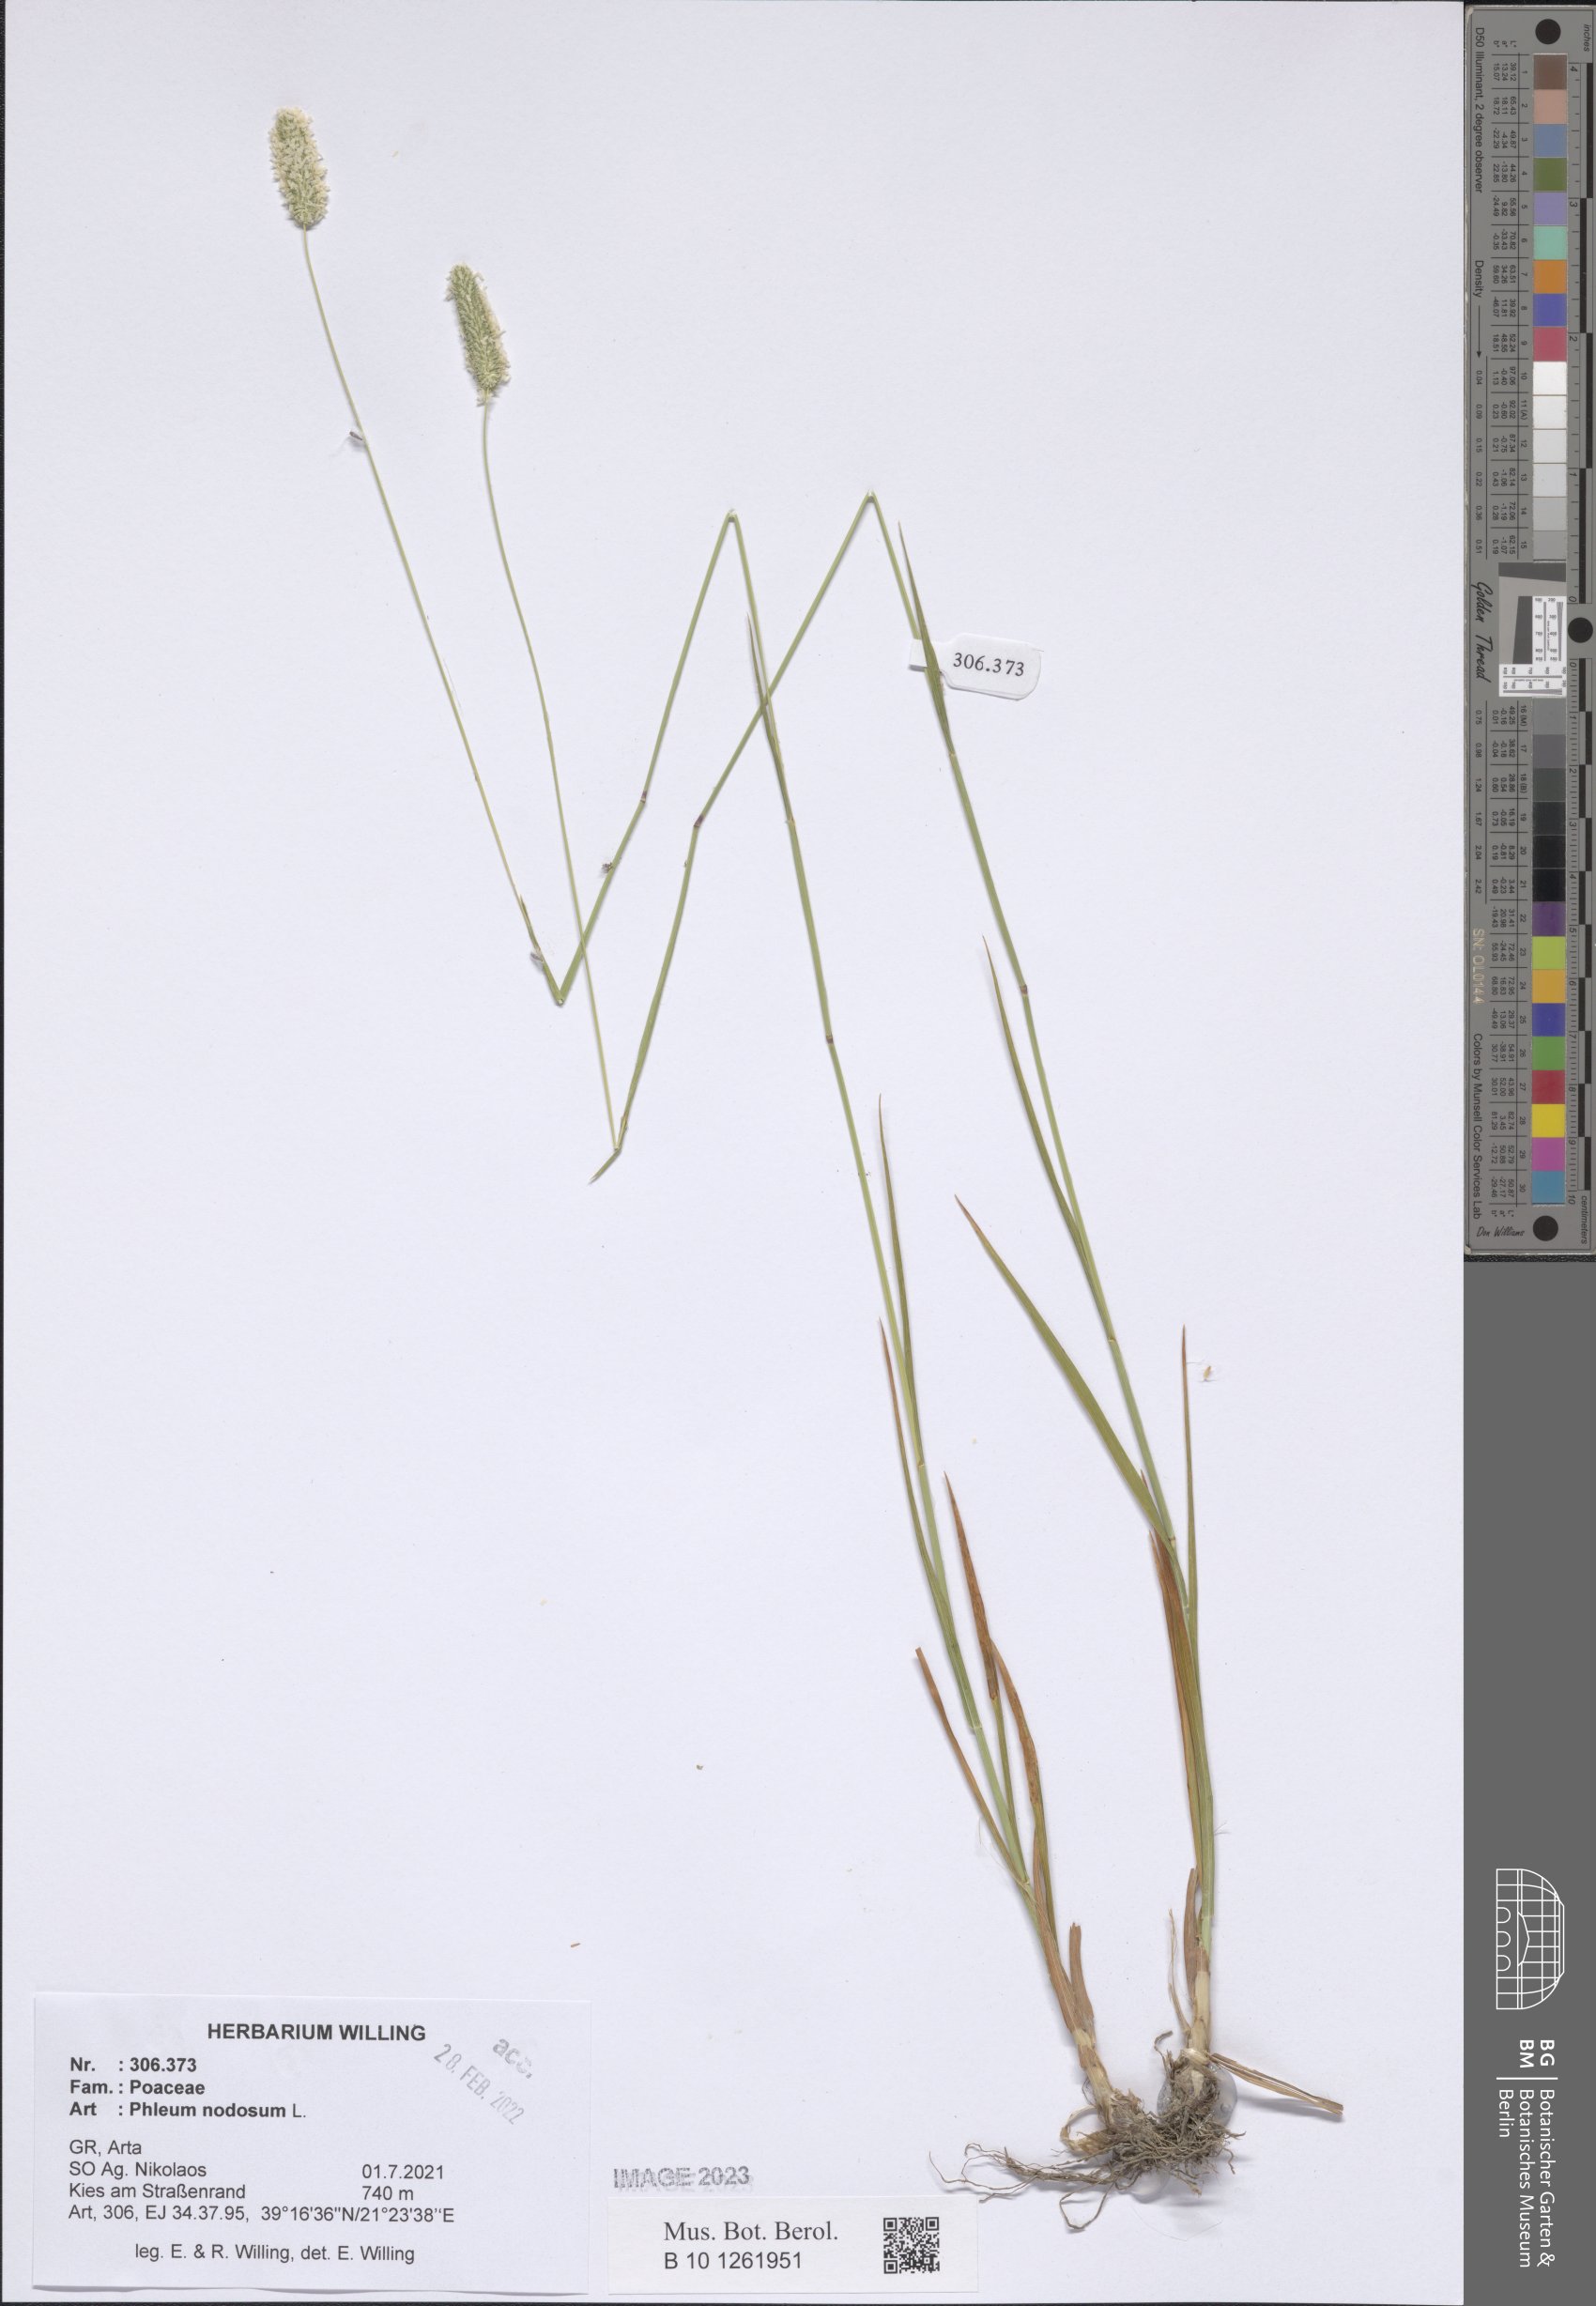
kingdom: Plantae
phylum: Tracheophyta
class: Liliopsida
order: Poales
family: Poaceae
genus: Phleum
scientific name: Phleum pratense
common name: Timothy grass
